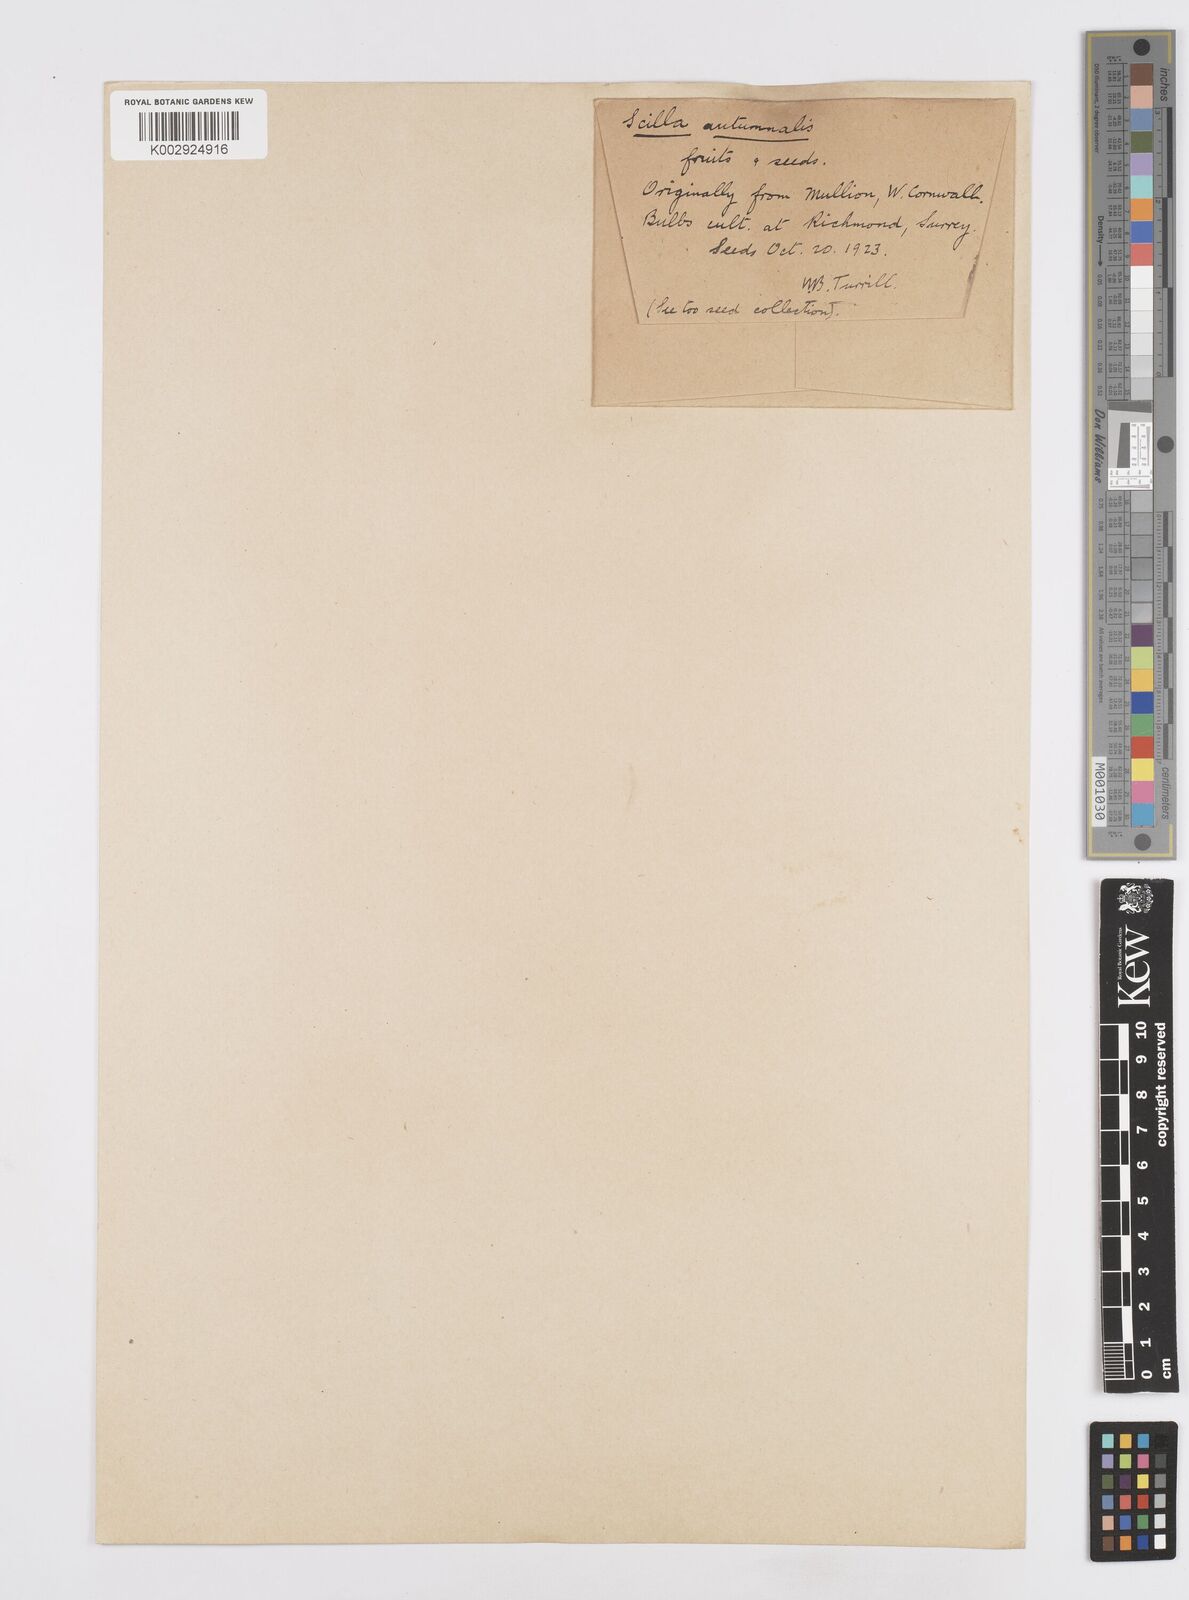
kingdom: Plantae
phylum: Tracheophyta
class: Liliopsida
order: Asparagales
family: Asparagaceae
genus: Prospero
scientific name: Prospero autumnale
